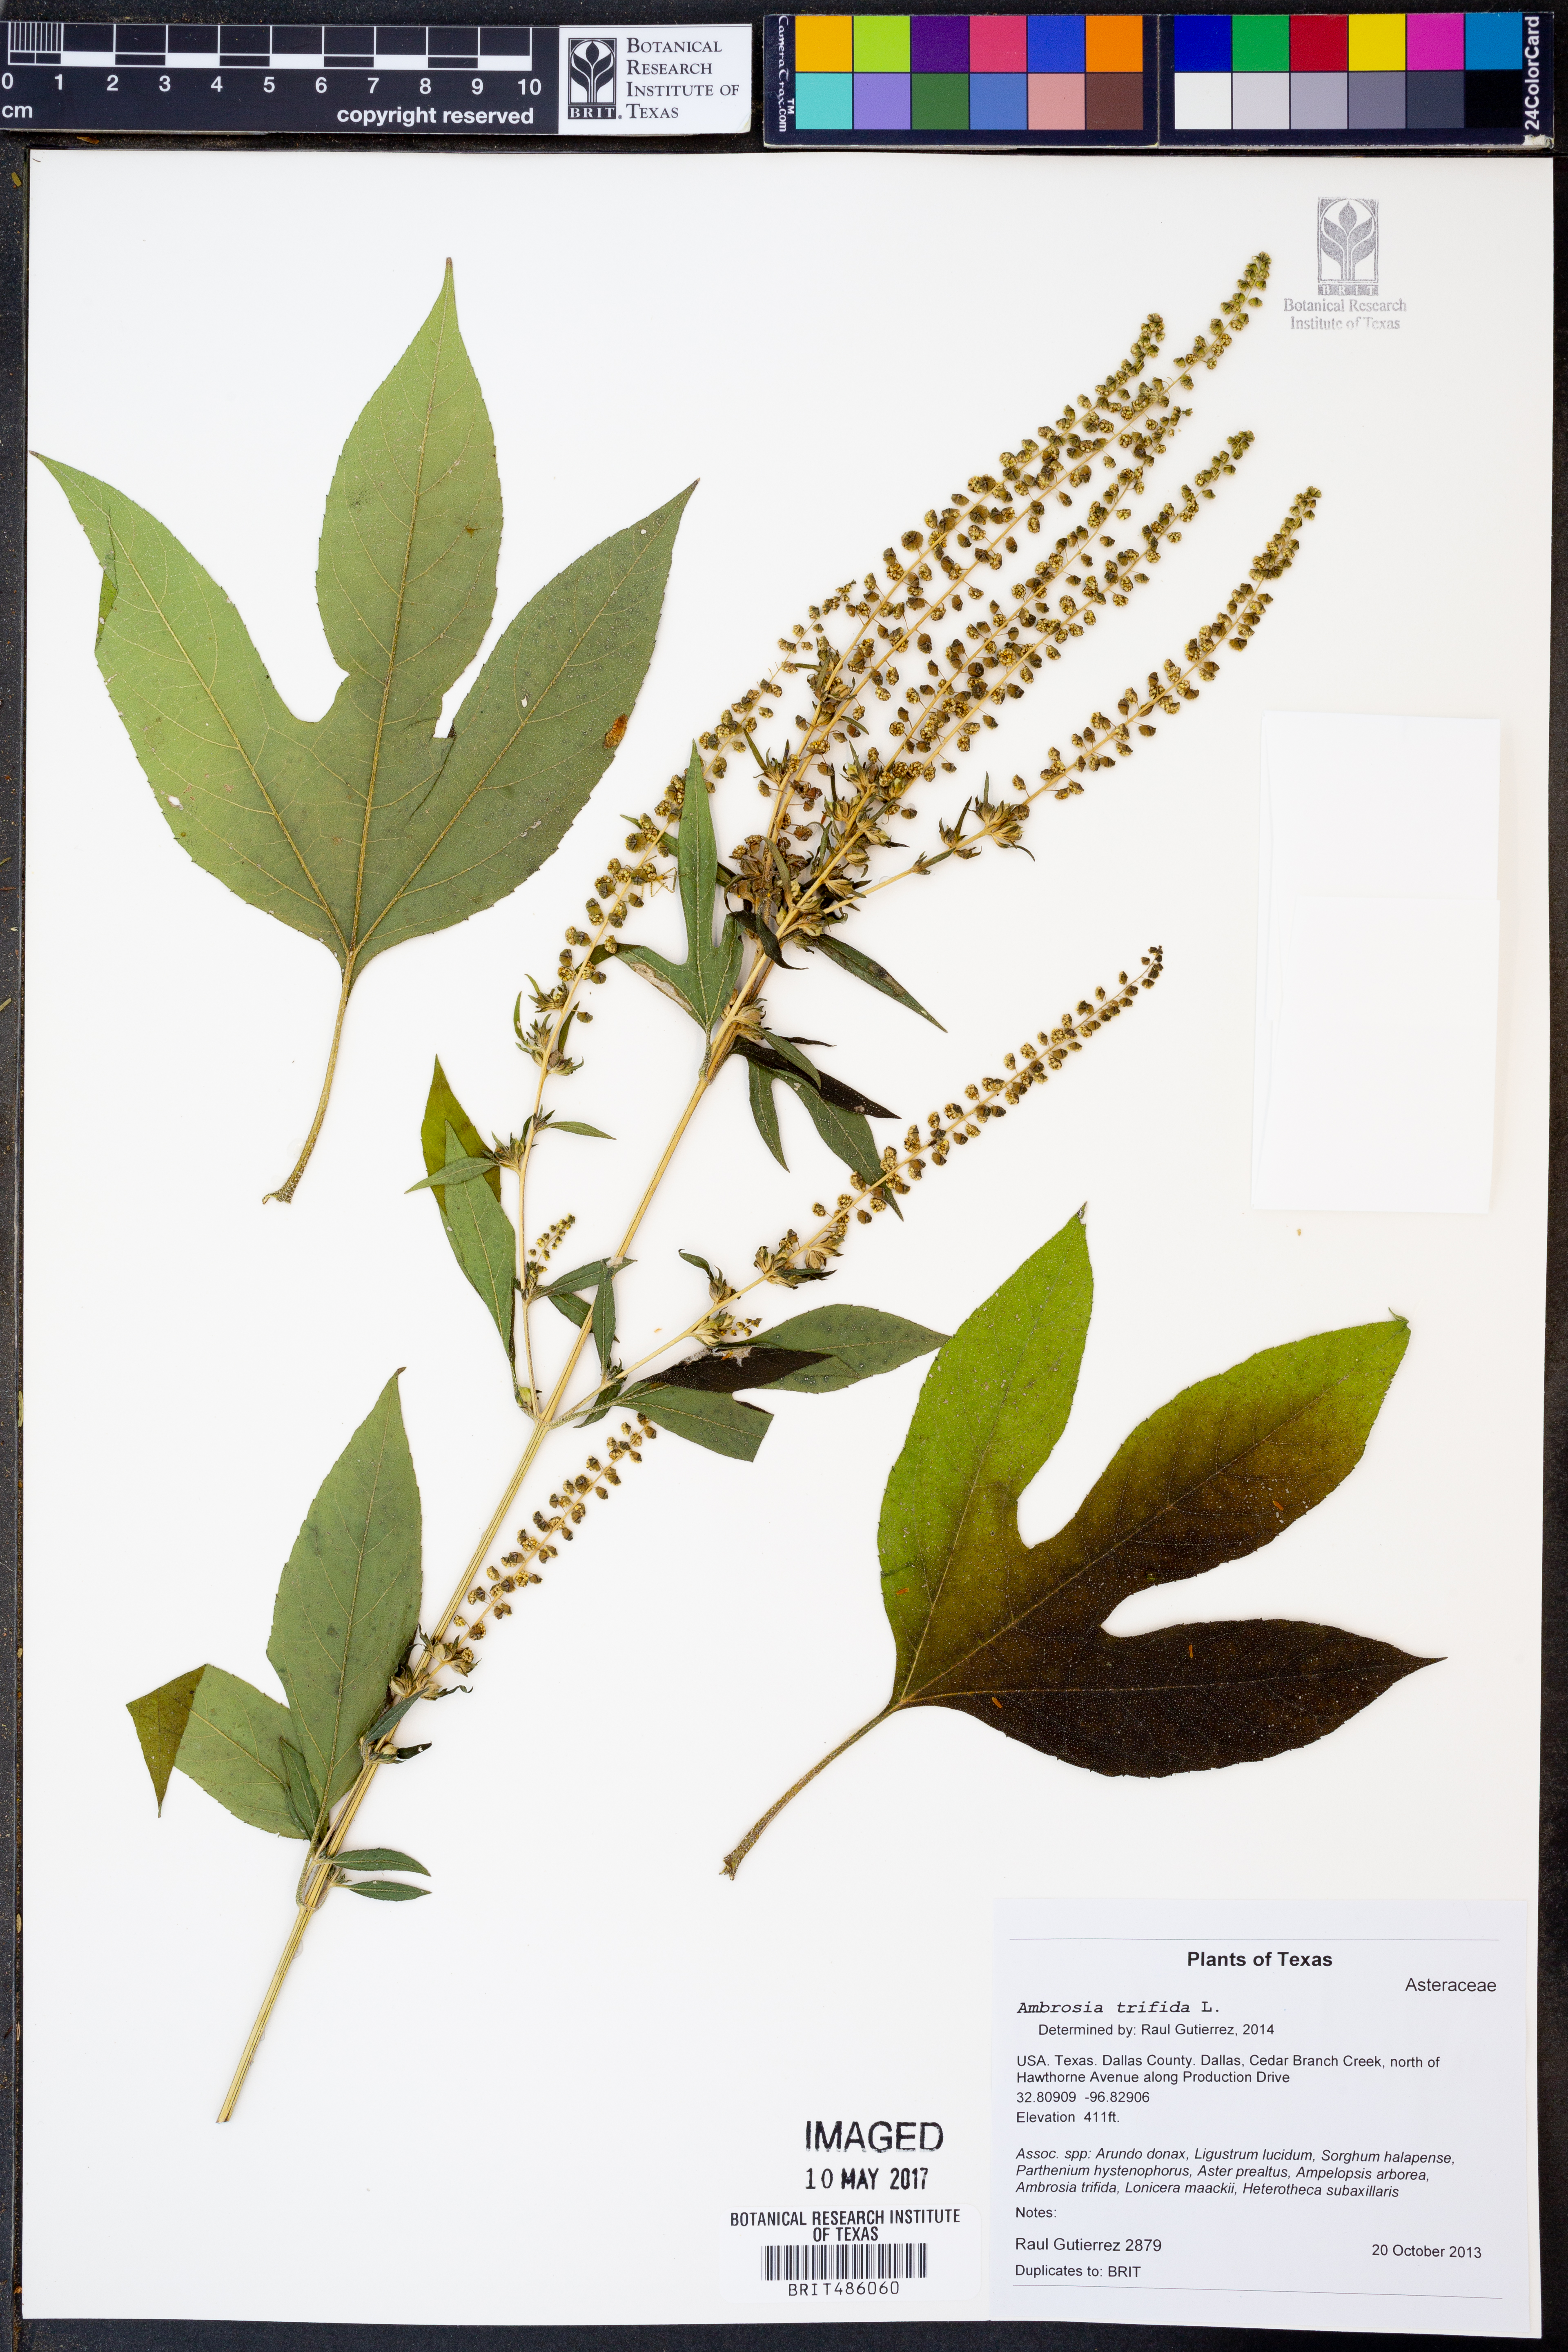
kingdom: Plantae
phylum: Tracheophyta
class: Magnoliopsida
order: Asterales
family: Asteraceae
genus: Ambrosia
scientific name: Ambrosia trifida
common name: Giant ragweed
